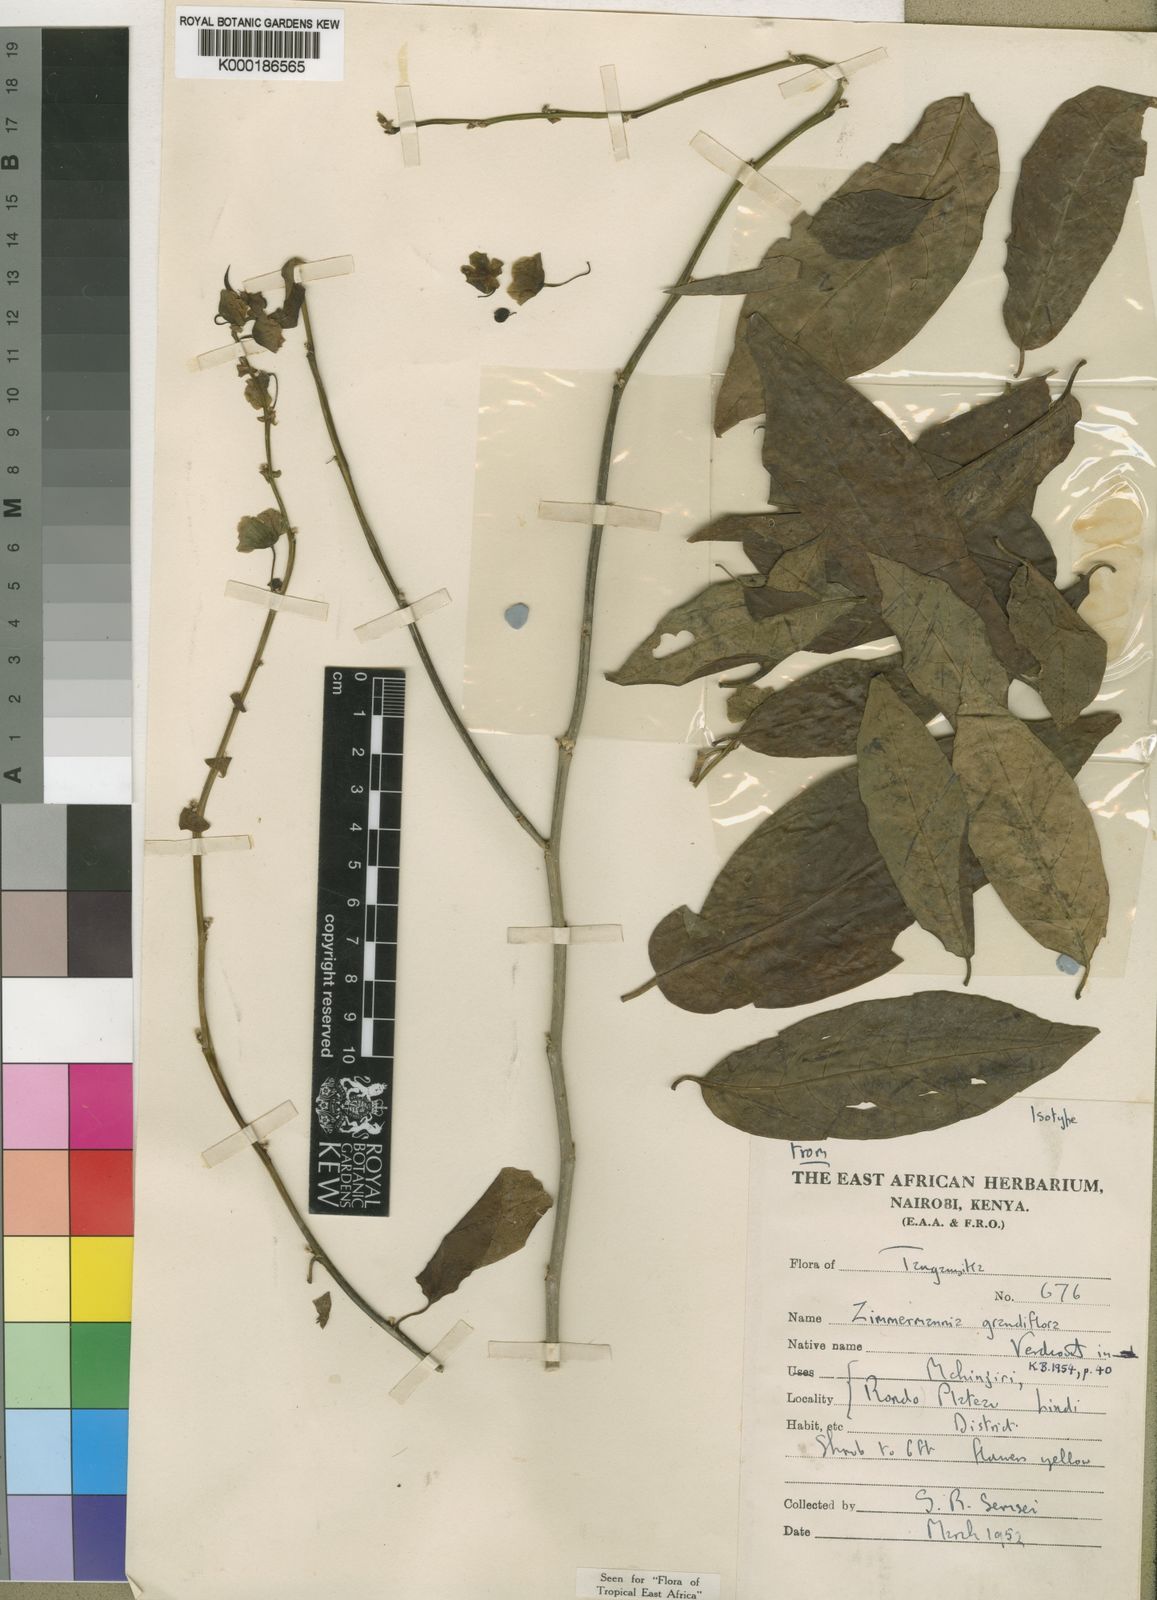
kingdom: Plantae
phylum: Tracheophyta
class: Magnoliopsida
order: Malpighiales
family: Phyllanthaceae
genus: Meineckia
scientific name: Meineckia grandiflora
